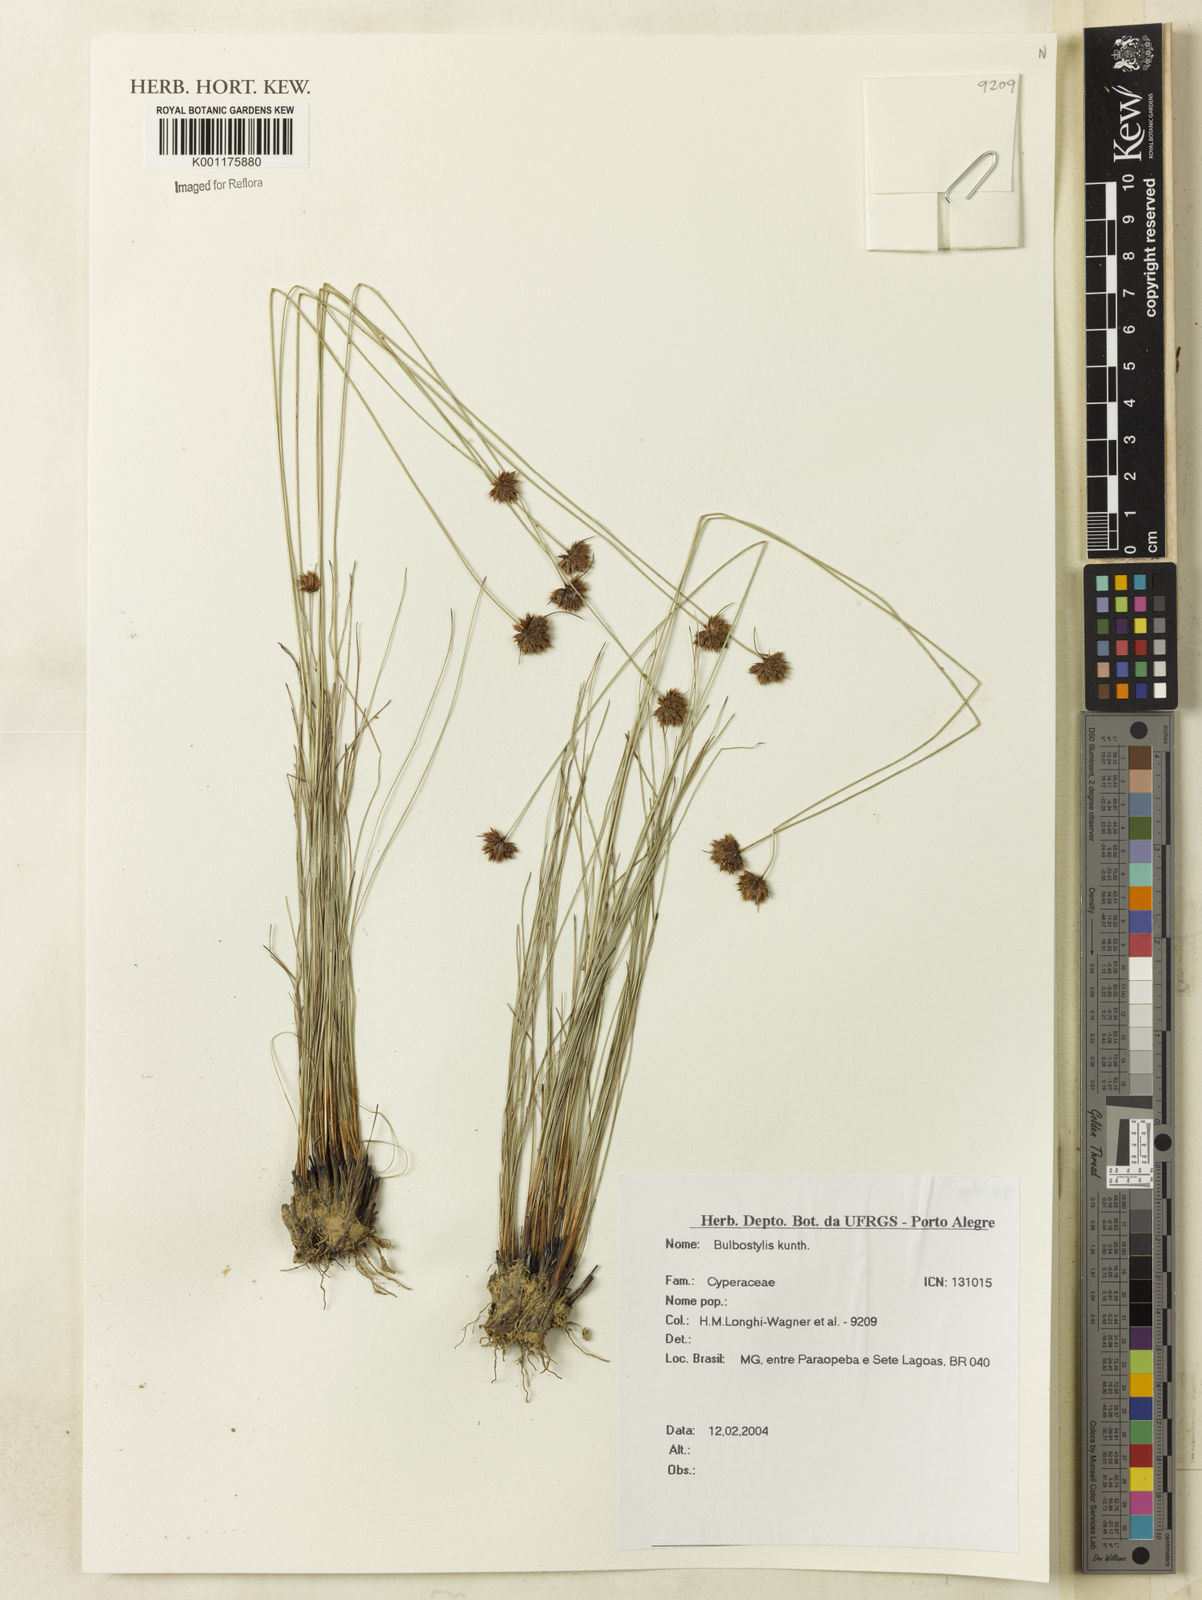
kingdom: Plantae
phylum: Tracheophyta
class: Liliopsida
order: Poales
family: Cyperaceae
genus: Bulbostylis
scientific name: Bulbostylis
